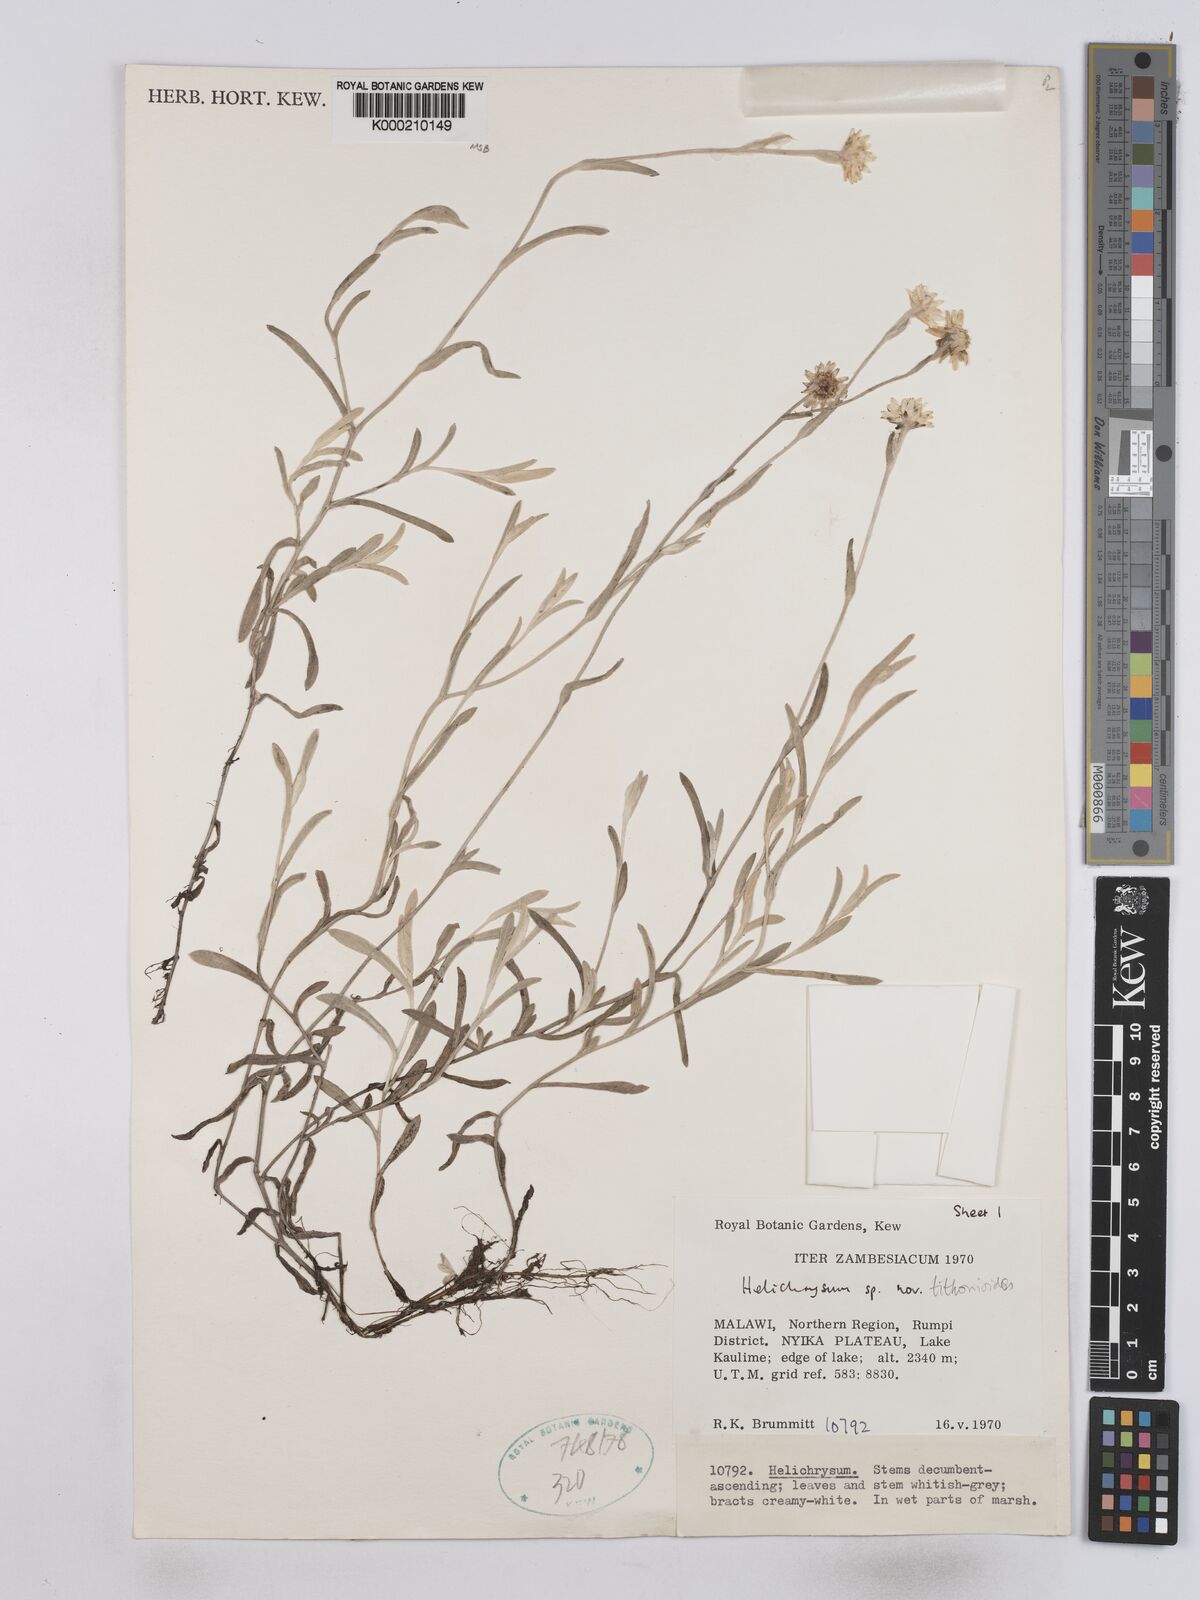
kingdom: Plantae
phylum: Tracheophyta
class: Magnoliopsida
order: Asterales
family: Asteraceae
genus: Helichrysum
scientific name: Helichrysum tithonioides
